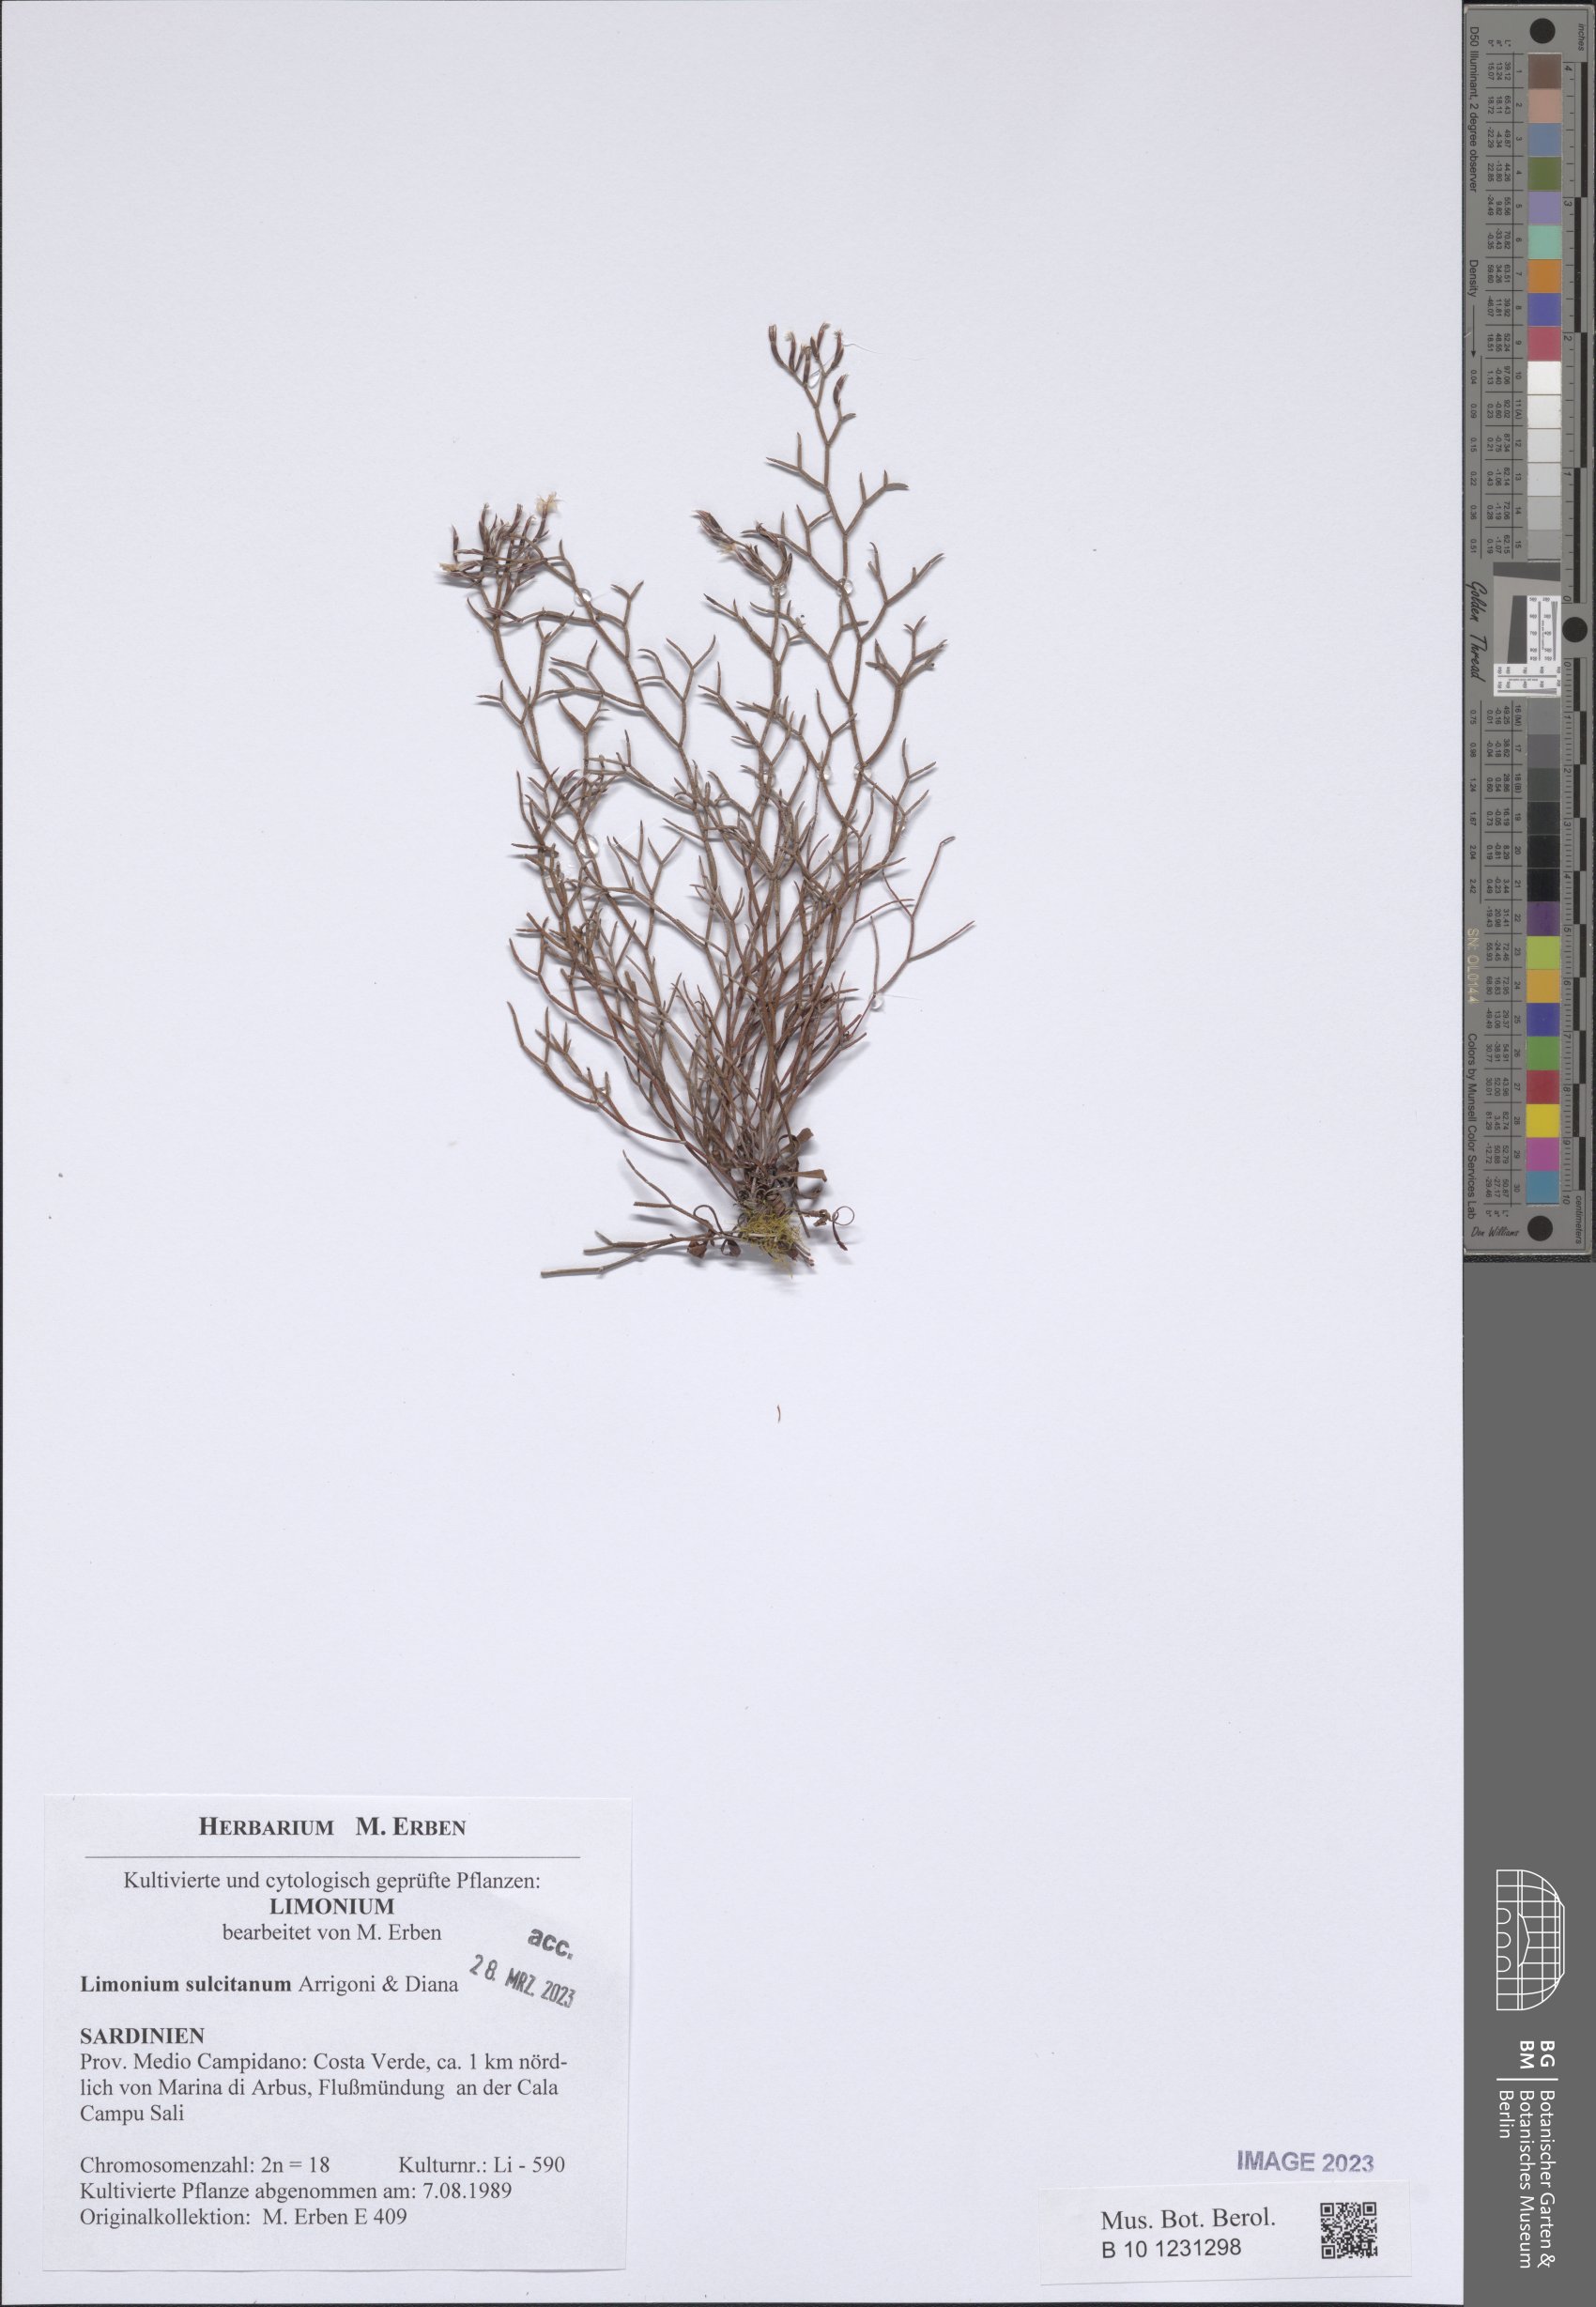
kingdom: Plantae
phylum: Tracheophyta
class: Magnoliopsida
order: Caryophyllales
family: Plumbaginaceae
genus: Limonium
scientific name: Limonium sulcitanum
